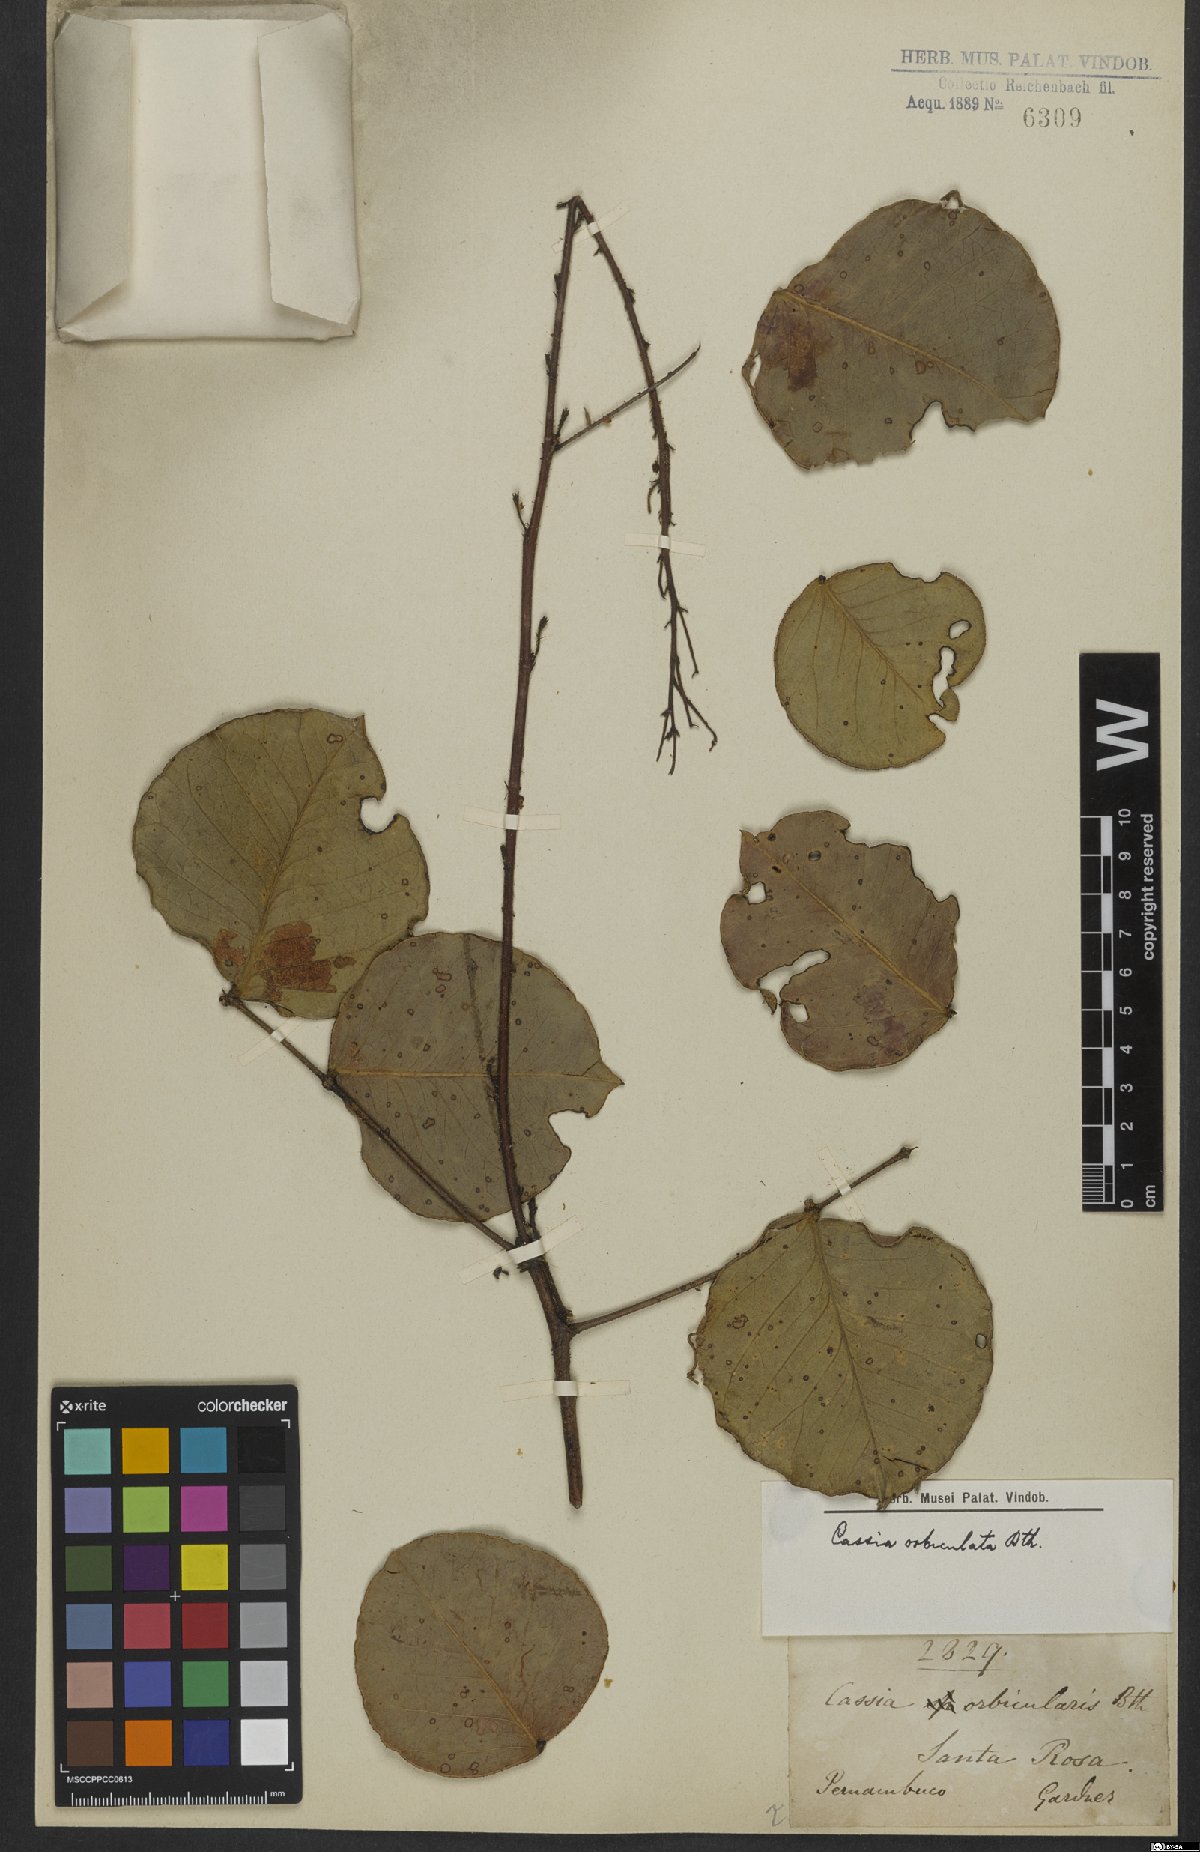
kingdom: Plantae
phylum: Tracheophyta
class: Magnoliopsida
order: Fabales
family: Fabaceae
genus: Chamaecrista
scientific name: Chamaecrista orbiculata
